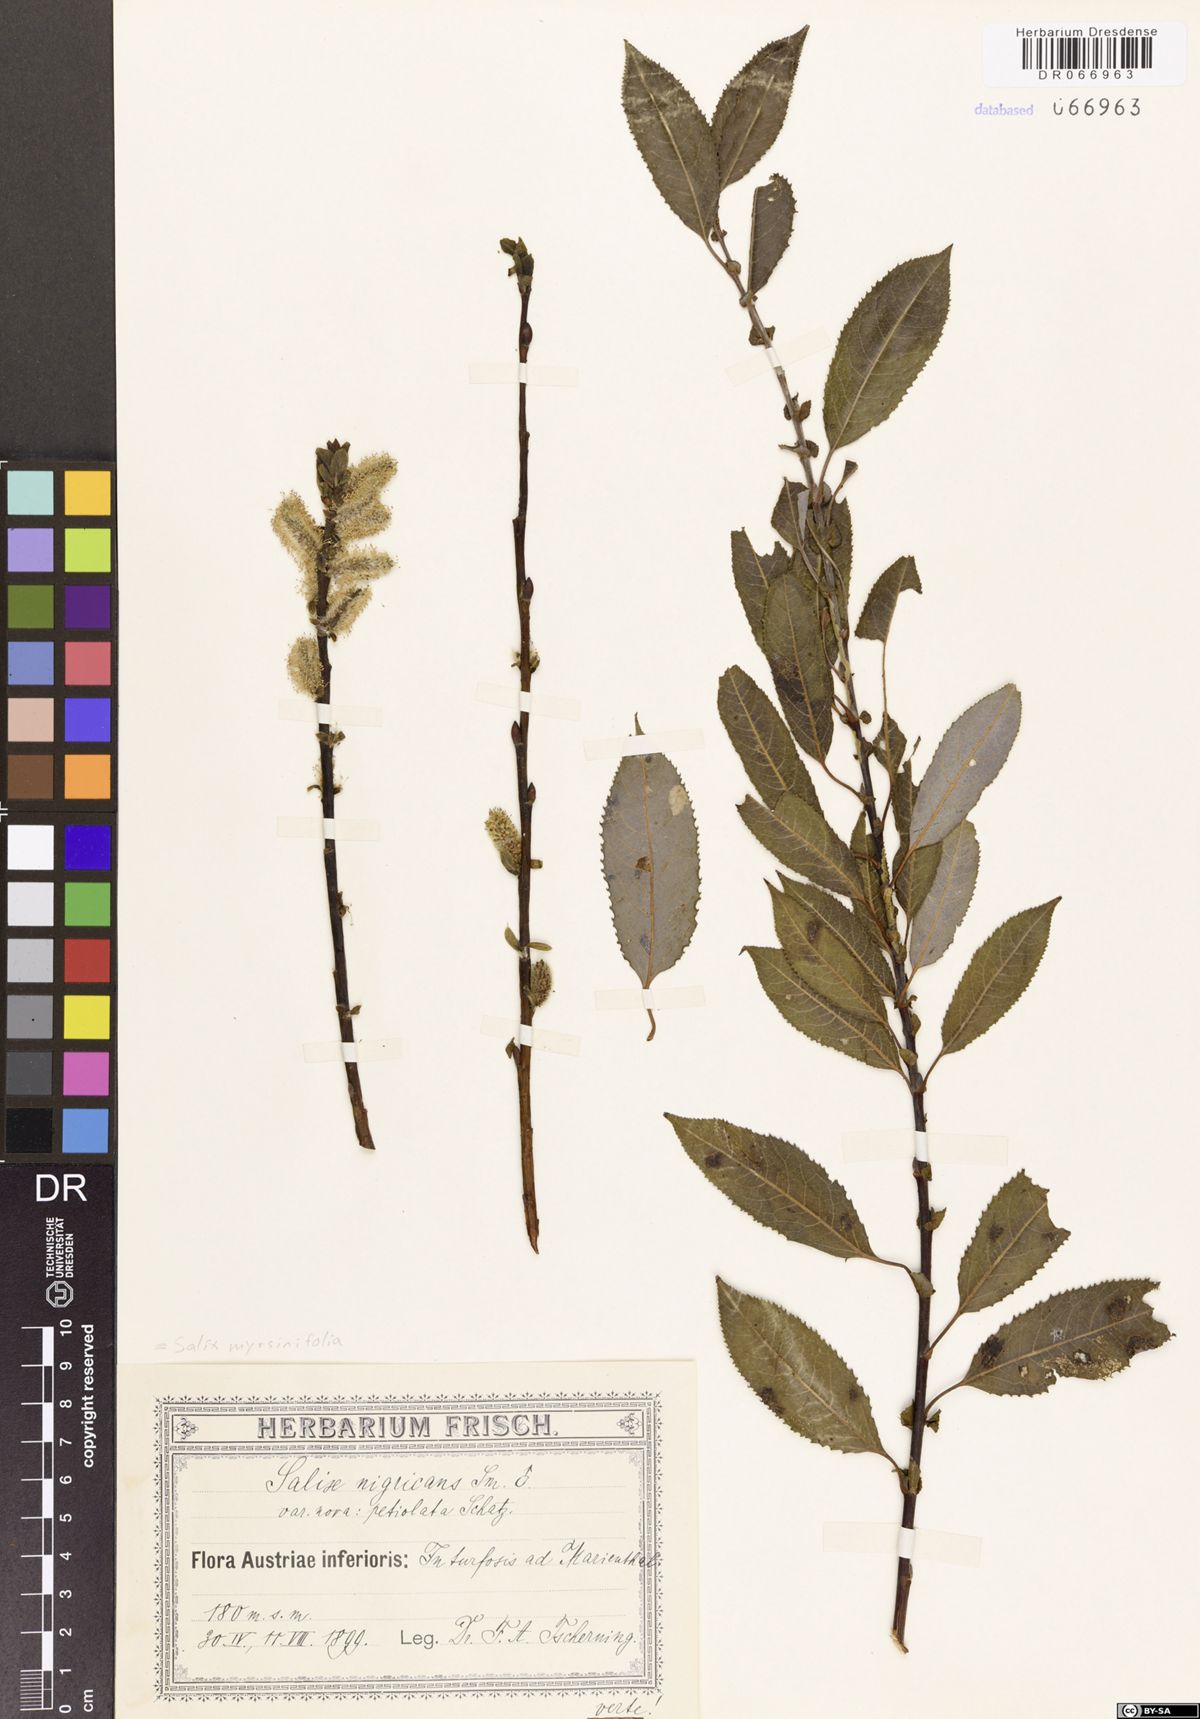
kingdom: Plantae
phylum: Tracheophyta
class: Magnoliopsida
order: Malpighiales
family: Salicaceae
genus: Salix
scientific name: Salix myrsinifolia
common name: Dark-leaved willow
